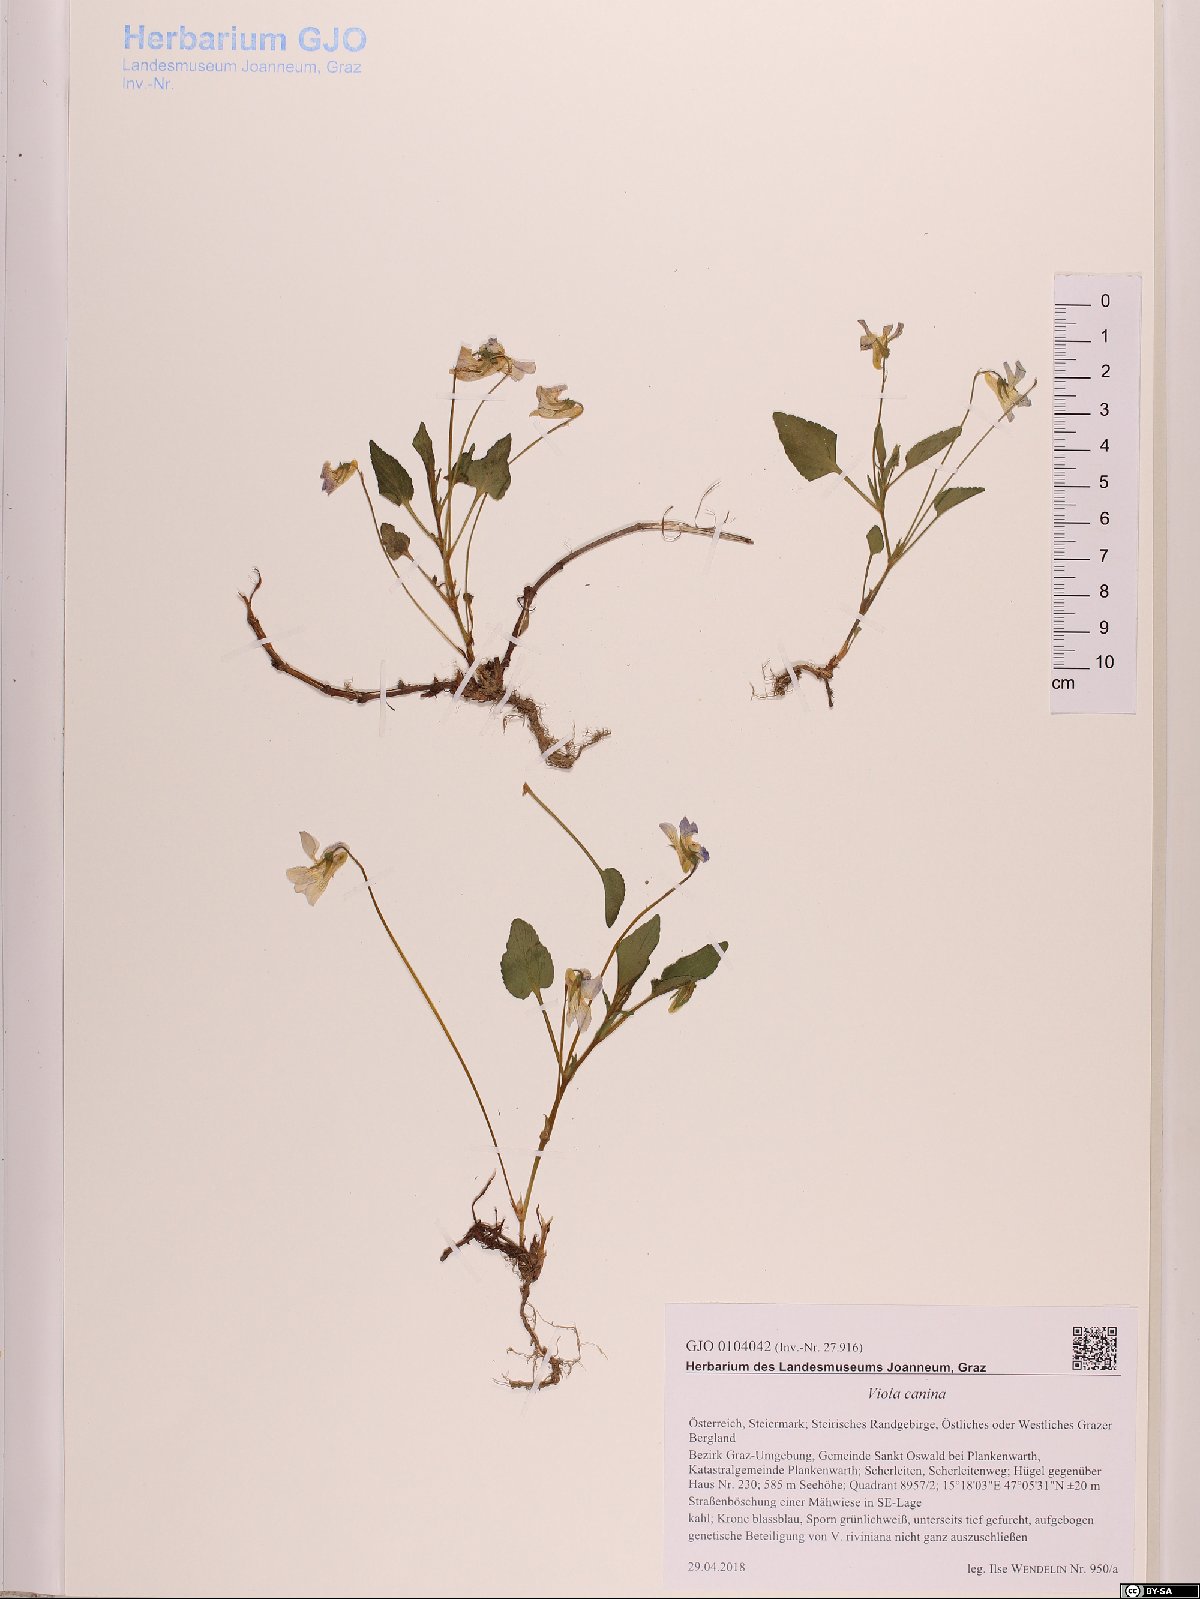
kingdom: Plantae
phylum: Tracheophyta
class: Magnoliopsida
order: Malpighiales
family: Violaceae
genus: Viola
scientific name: Viola canina
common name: Heath dog-violet
